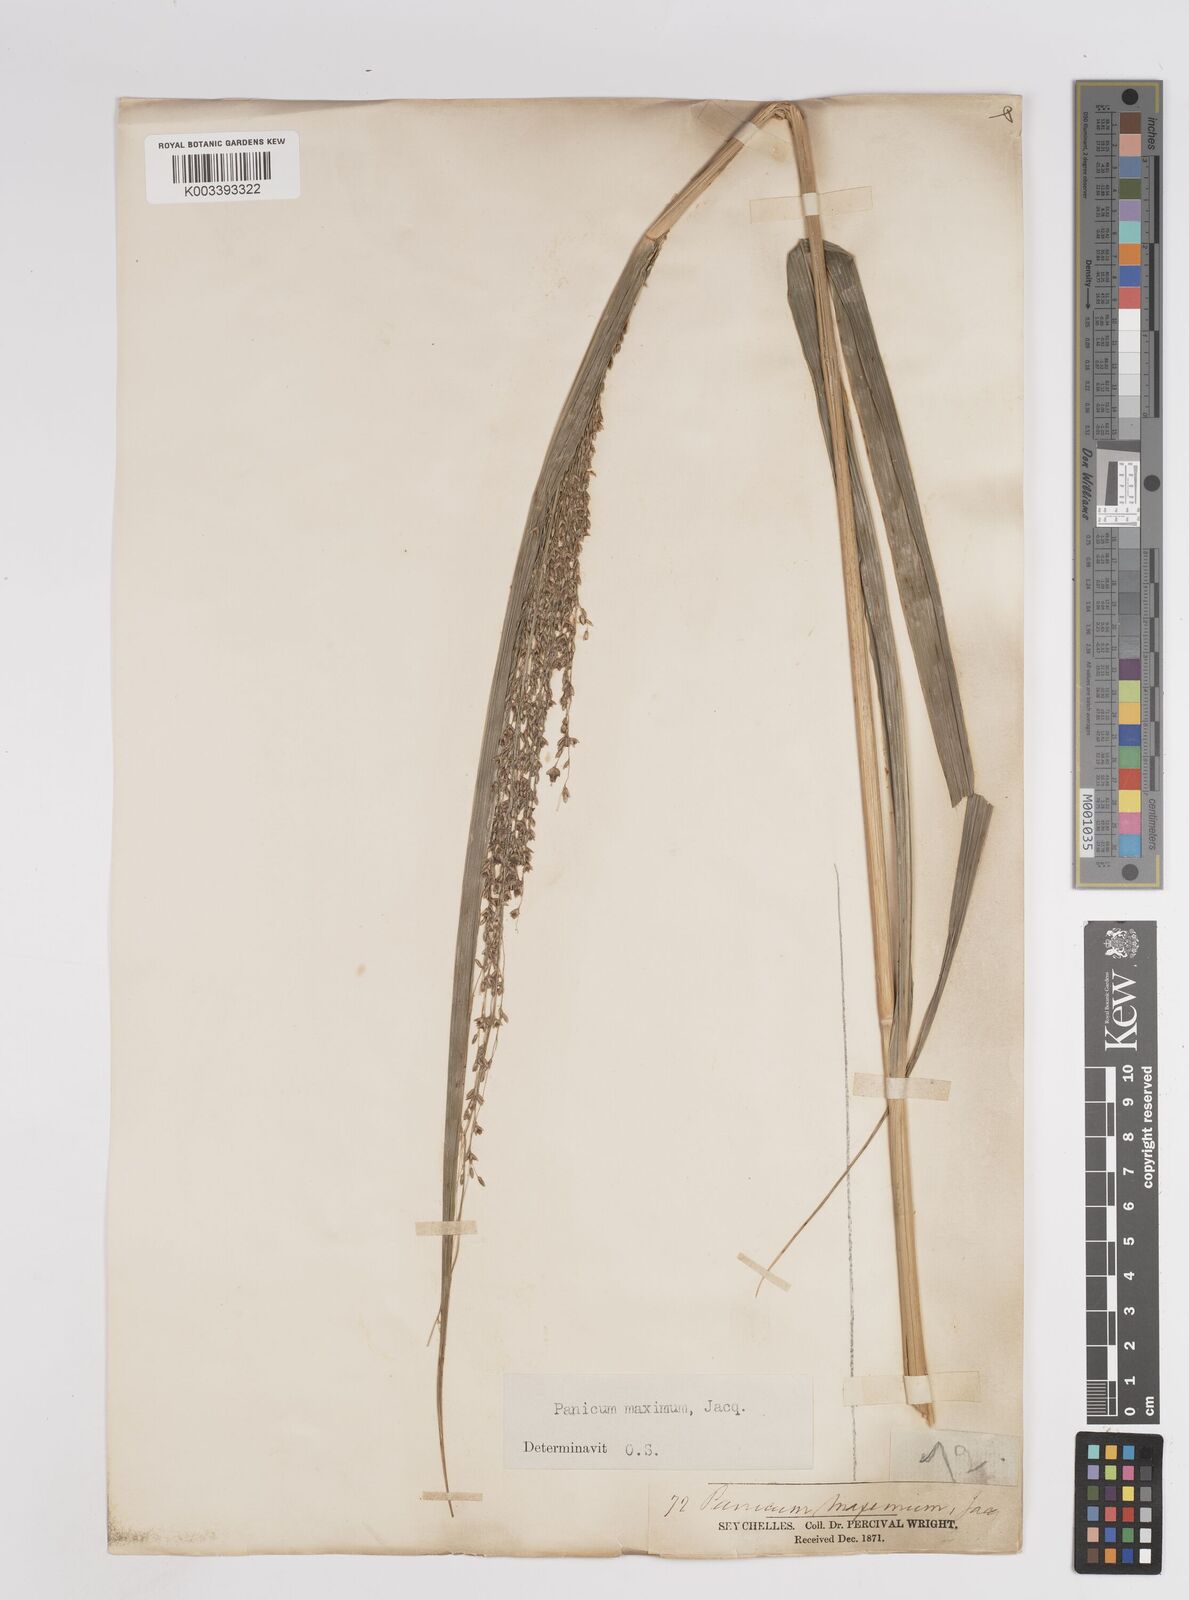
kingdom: Plantae
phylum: Tracheophyta
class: Liliopsida
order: Poales
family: Poaceae
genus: Megathyrsus
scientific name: Megathyrsus maximus
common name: Guineagrass
